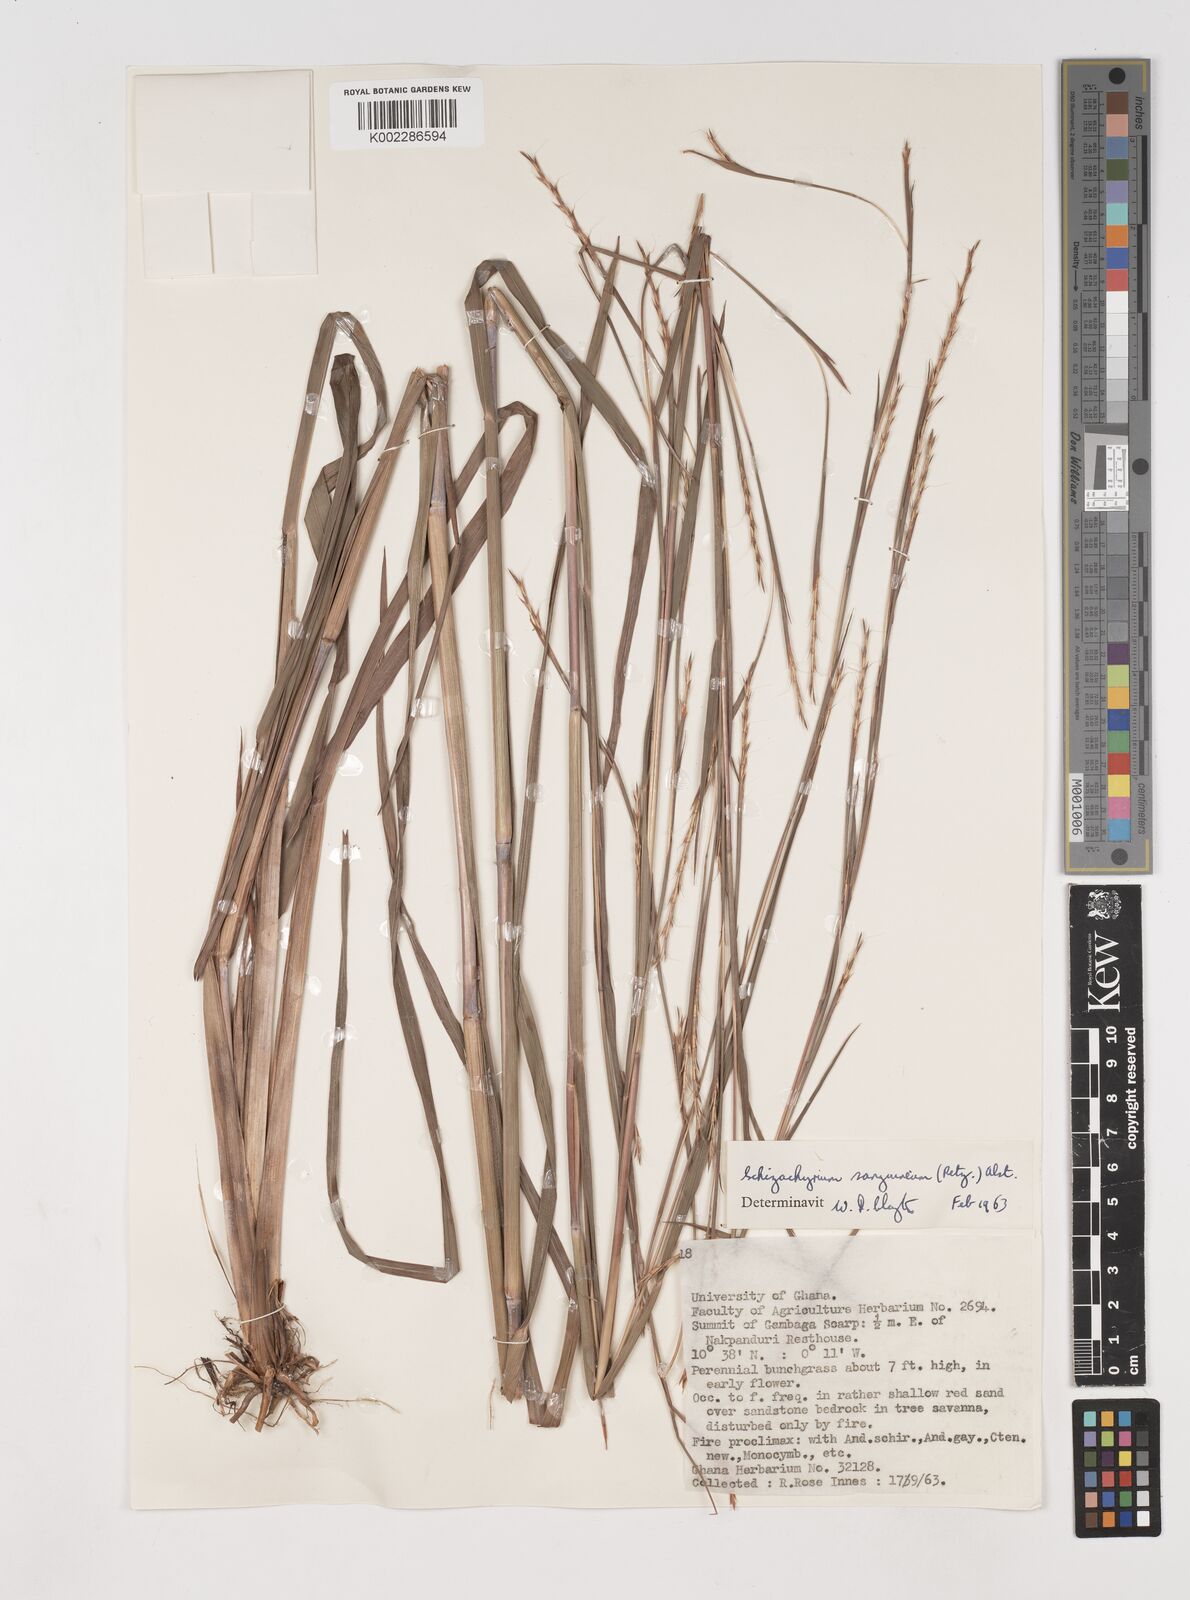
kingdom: Plantae
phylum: Tracheophyta
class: Liliopsida
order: Poales
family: Poaceae
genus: Schizachyrium
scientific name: Schizachyrium sanguineum
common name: Crimson bluestem
